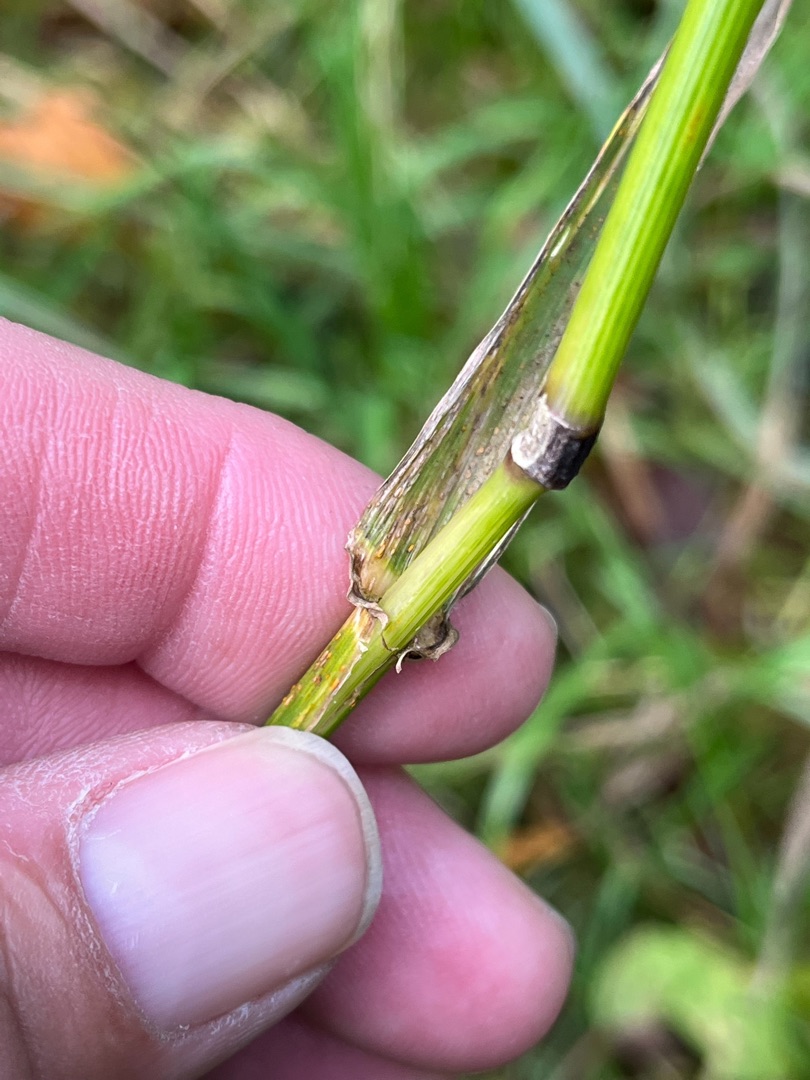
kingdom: Plantae
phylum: Tracheophyta
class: Liliopsida
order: Poales
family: Poaceae
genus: Lolium
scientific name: Lolium giganteum
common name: Kæmpe-svingel
